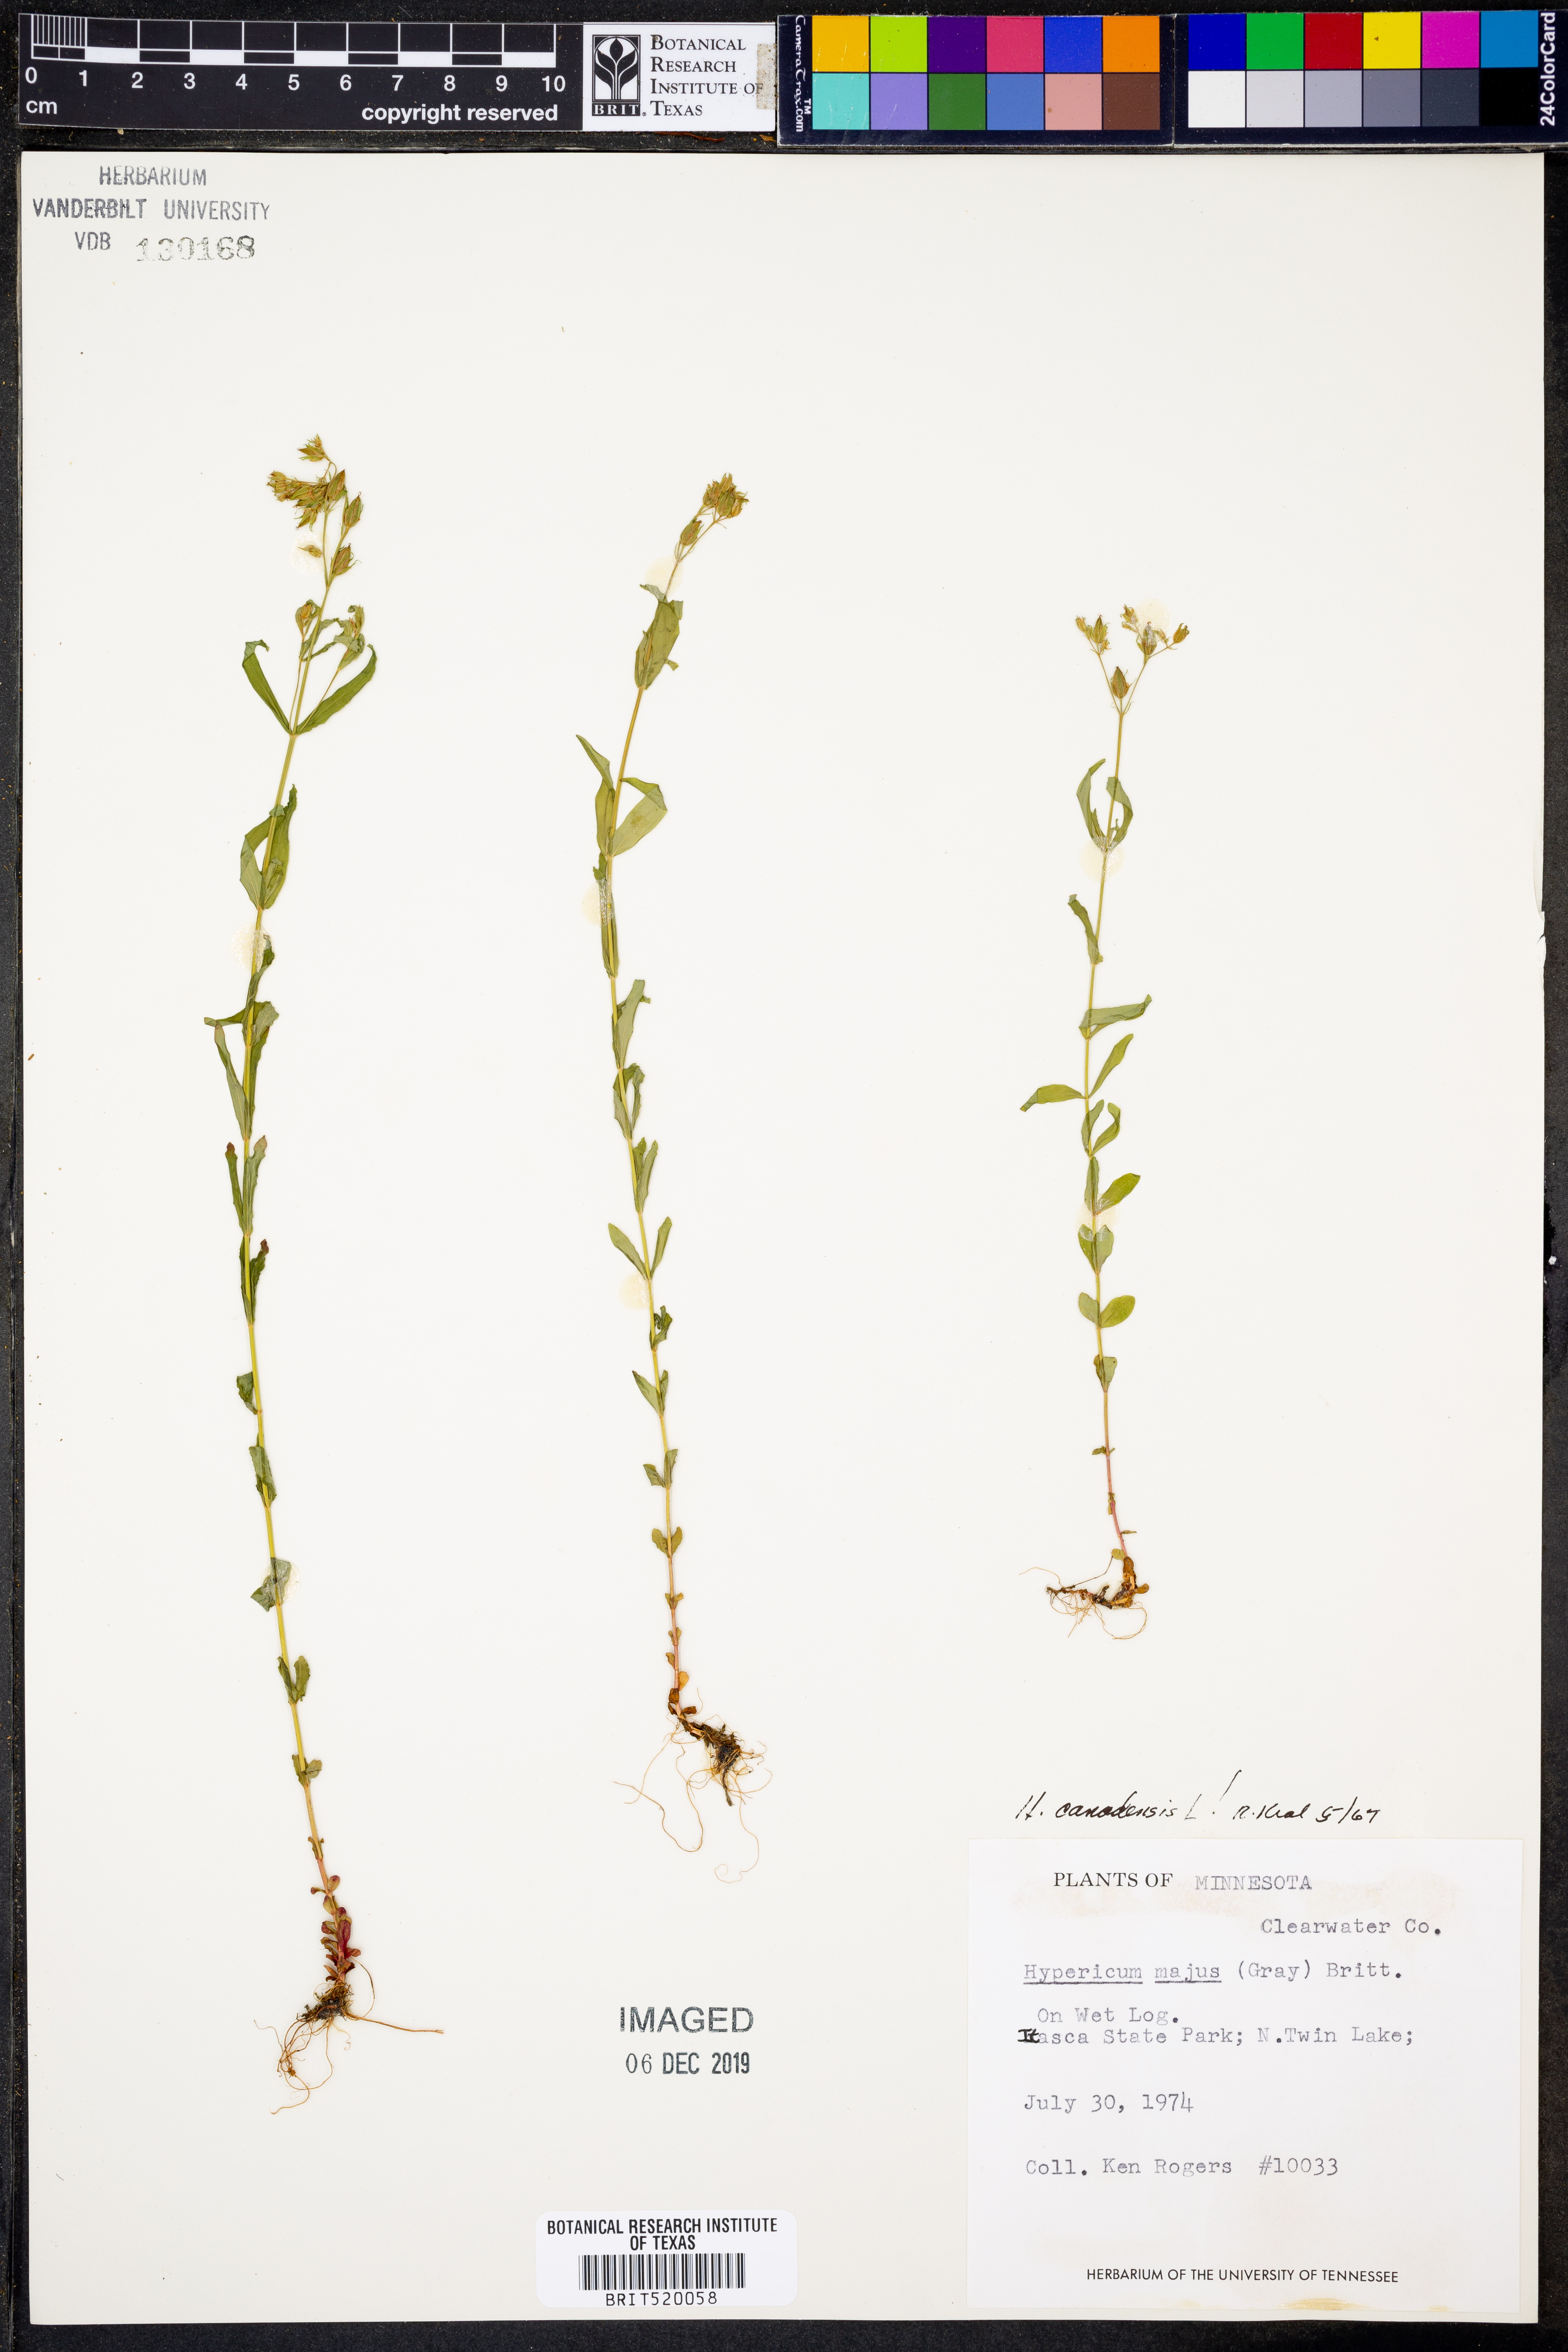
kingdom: Plantae
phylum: Tracheophyta
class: Magnoliopsida
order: Malpighiales
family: Hypericaceae
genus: Hypericum
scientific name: Hypericum canadense
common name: Irish st. john's-wort
